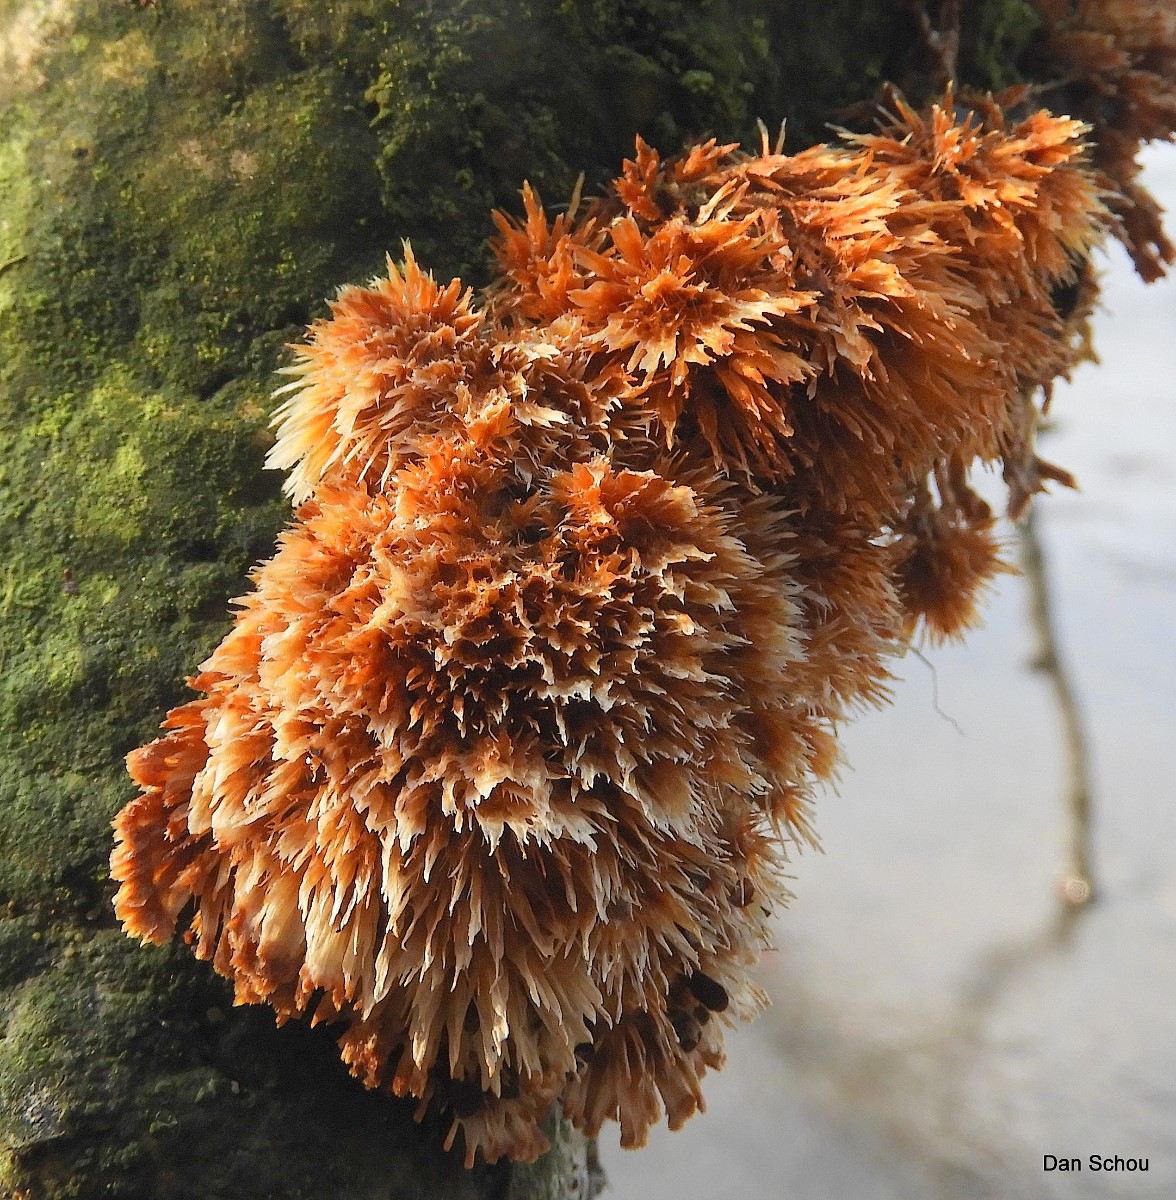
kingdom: Fungi
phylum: Basidiomycota
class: Agaricomycetes
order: Agaricales
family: Psathyrellaceae
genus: Coprinellus
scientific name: Coprinellus
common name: blækhat
